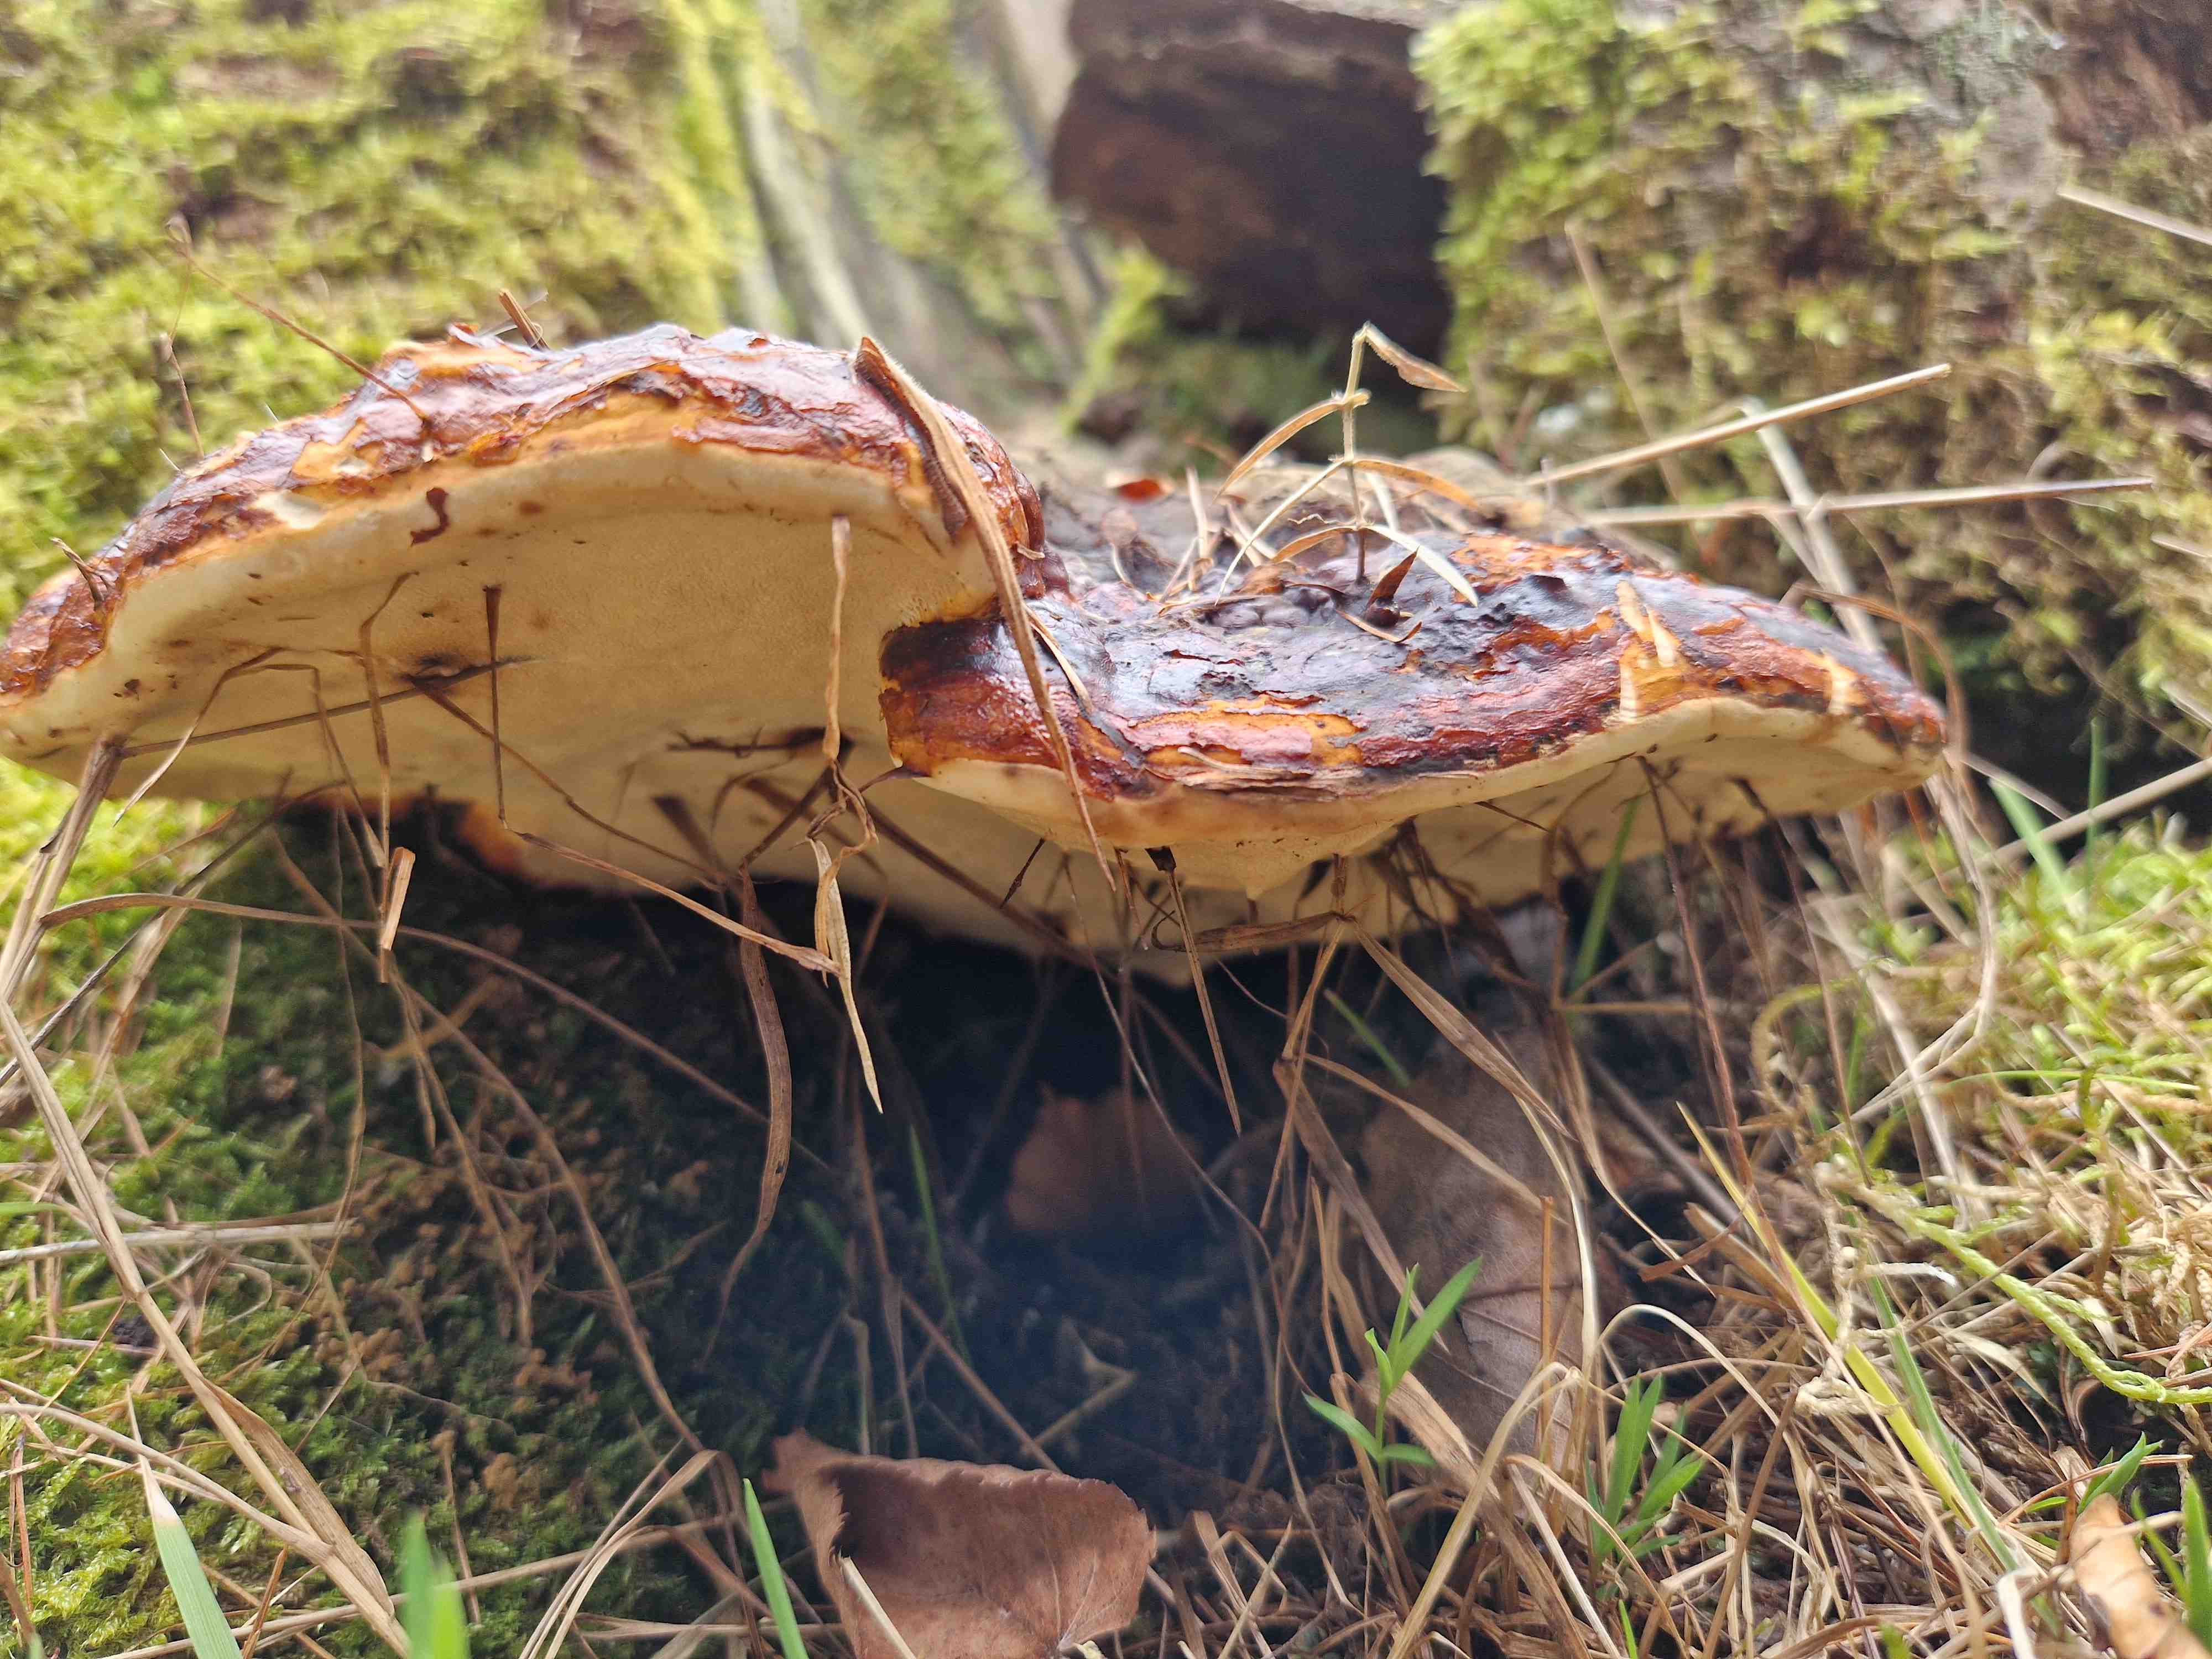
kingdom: Fungi
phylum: Basidiomycota
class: Agaricomycetes
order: Polyporales
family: Fomitopsidaceae
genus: Fomitopsis
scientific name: Fomitopsis pinicola
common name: randbæltet hovporesvamp
